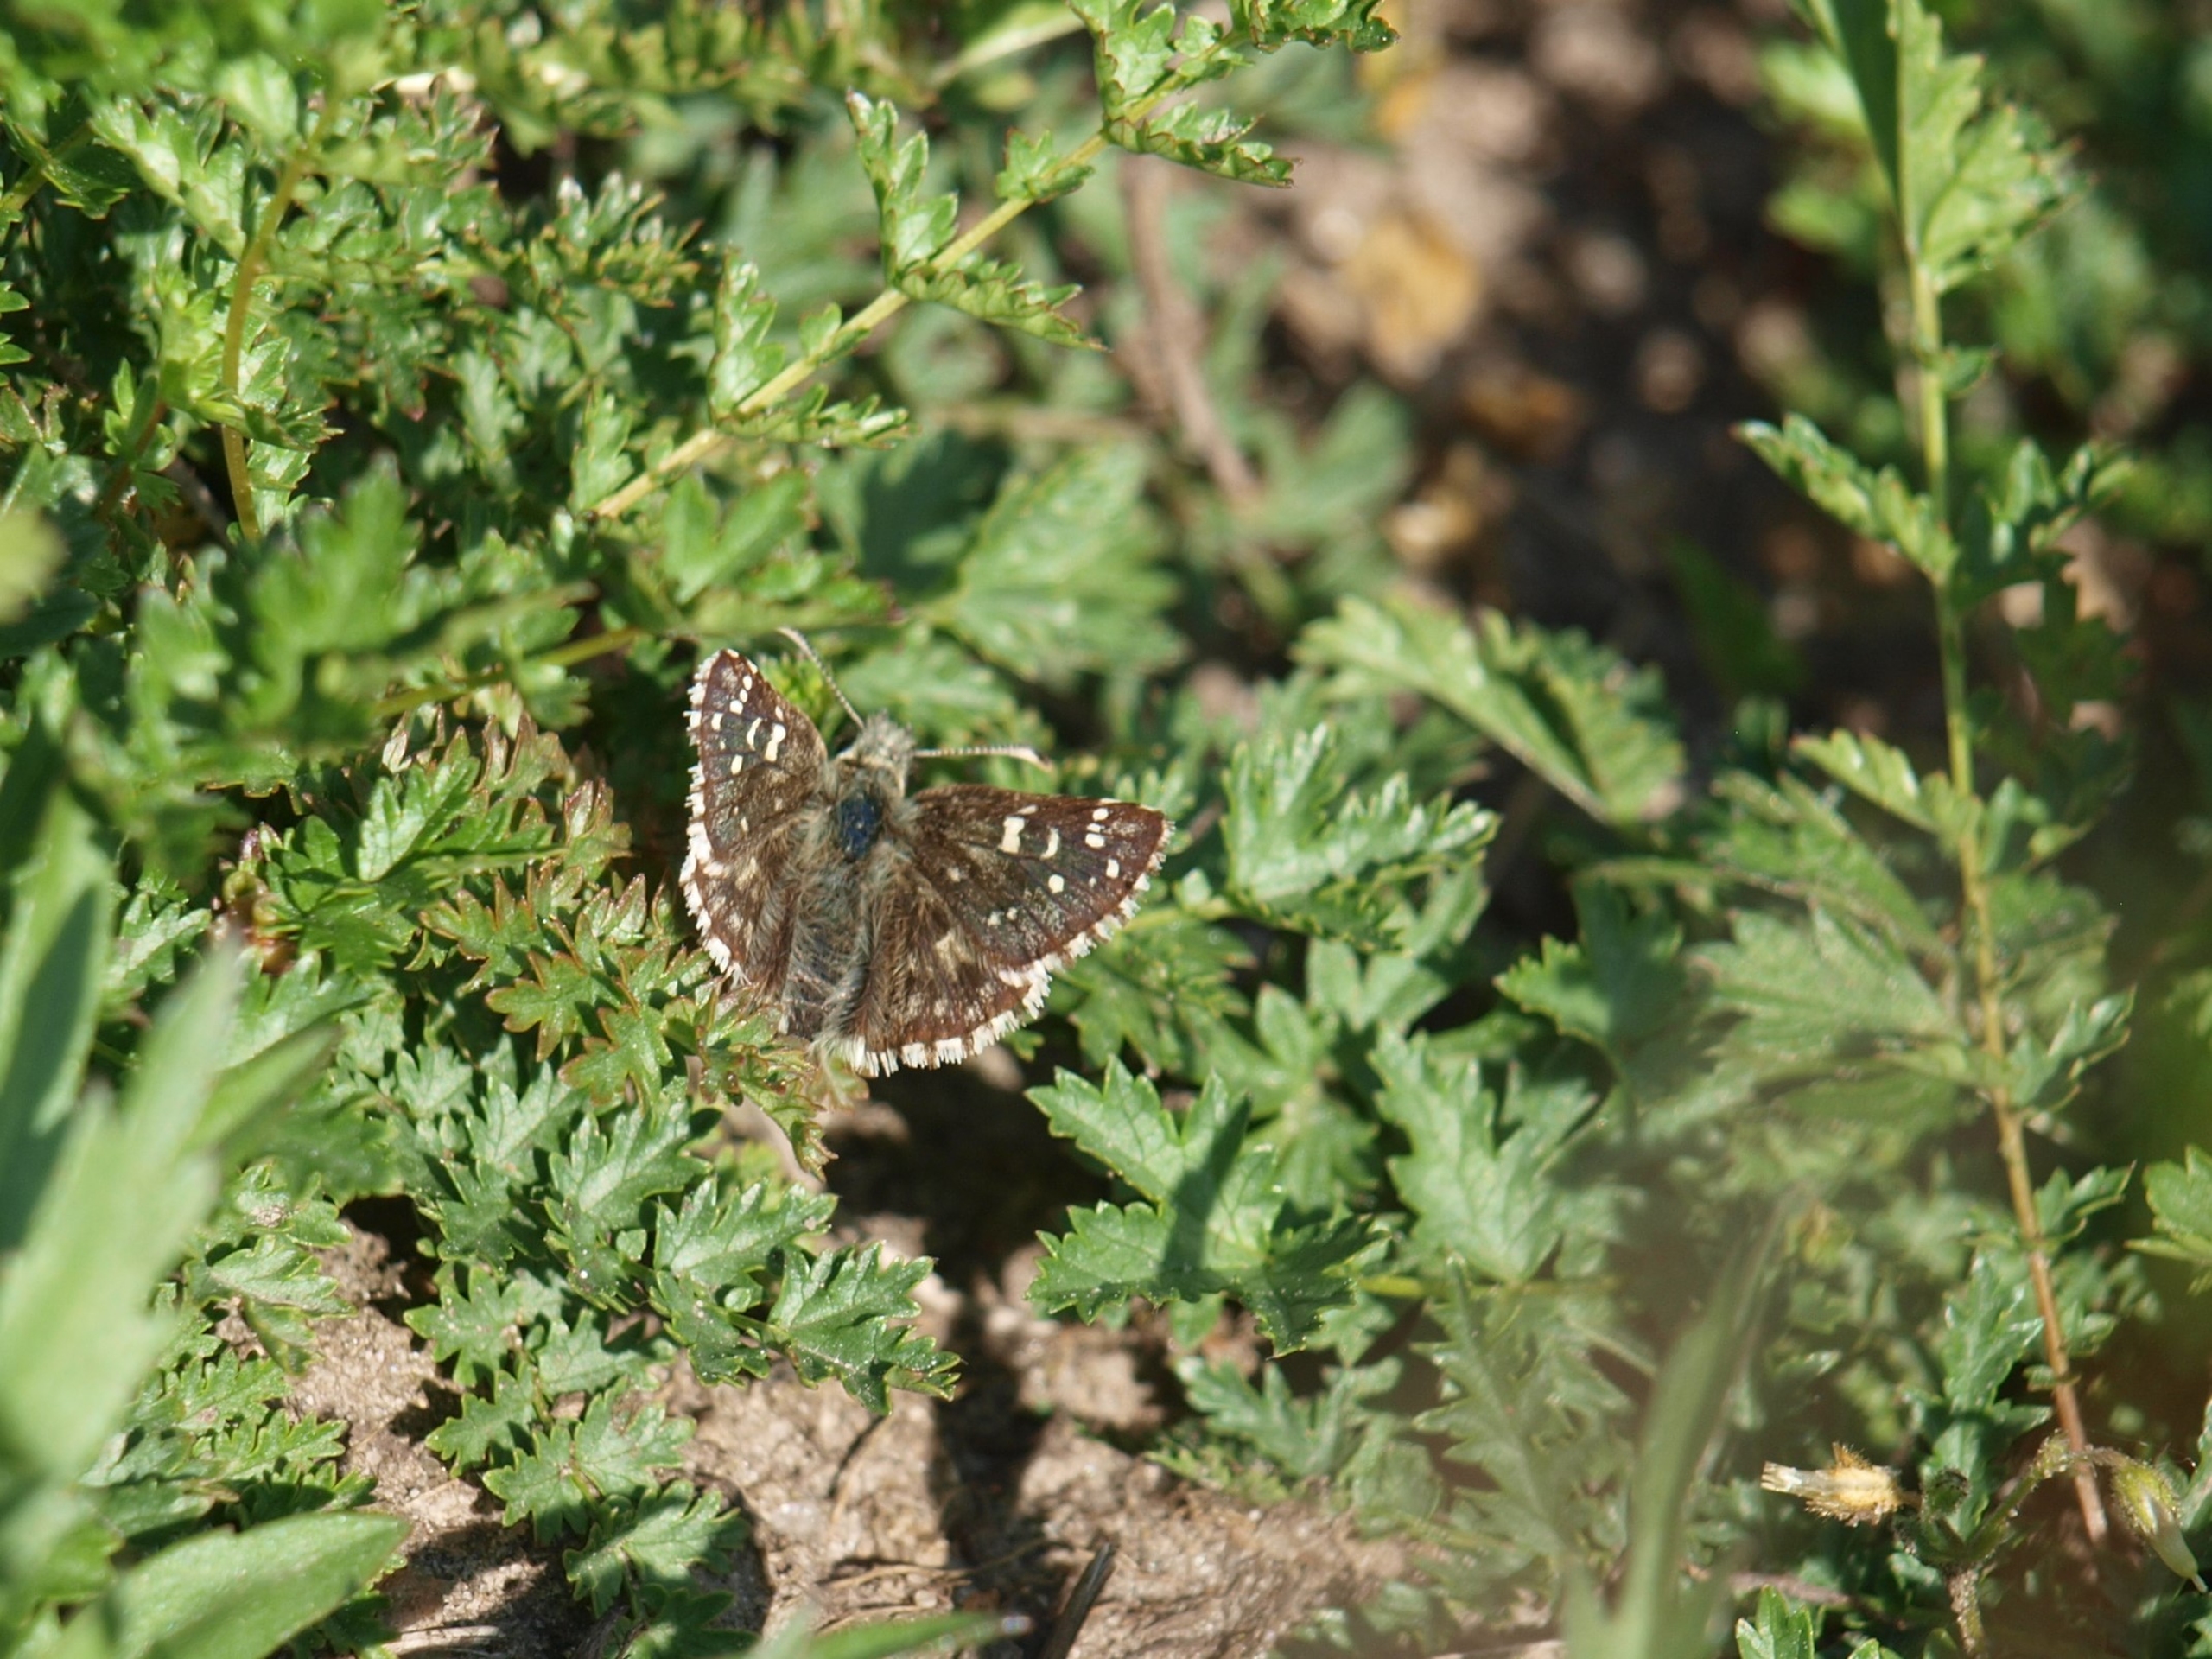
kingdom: Animalia
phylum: Arthropoda
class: Insecta
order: Lepidoptera
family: Hesperiidae
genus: Pyrgus
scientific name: Pyrgus armoricanus
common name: Fransk bredpande
